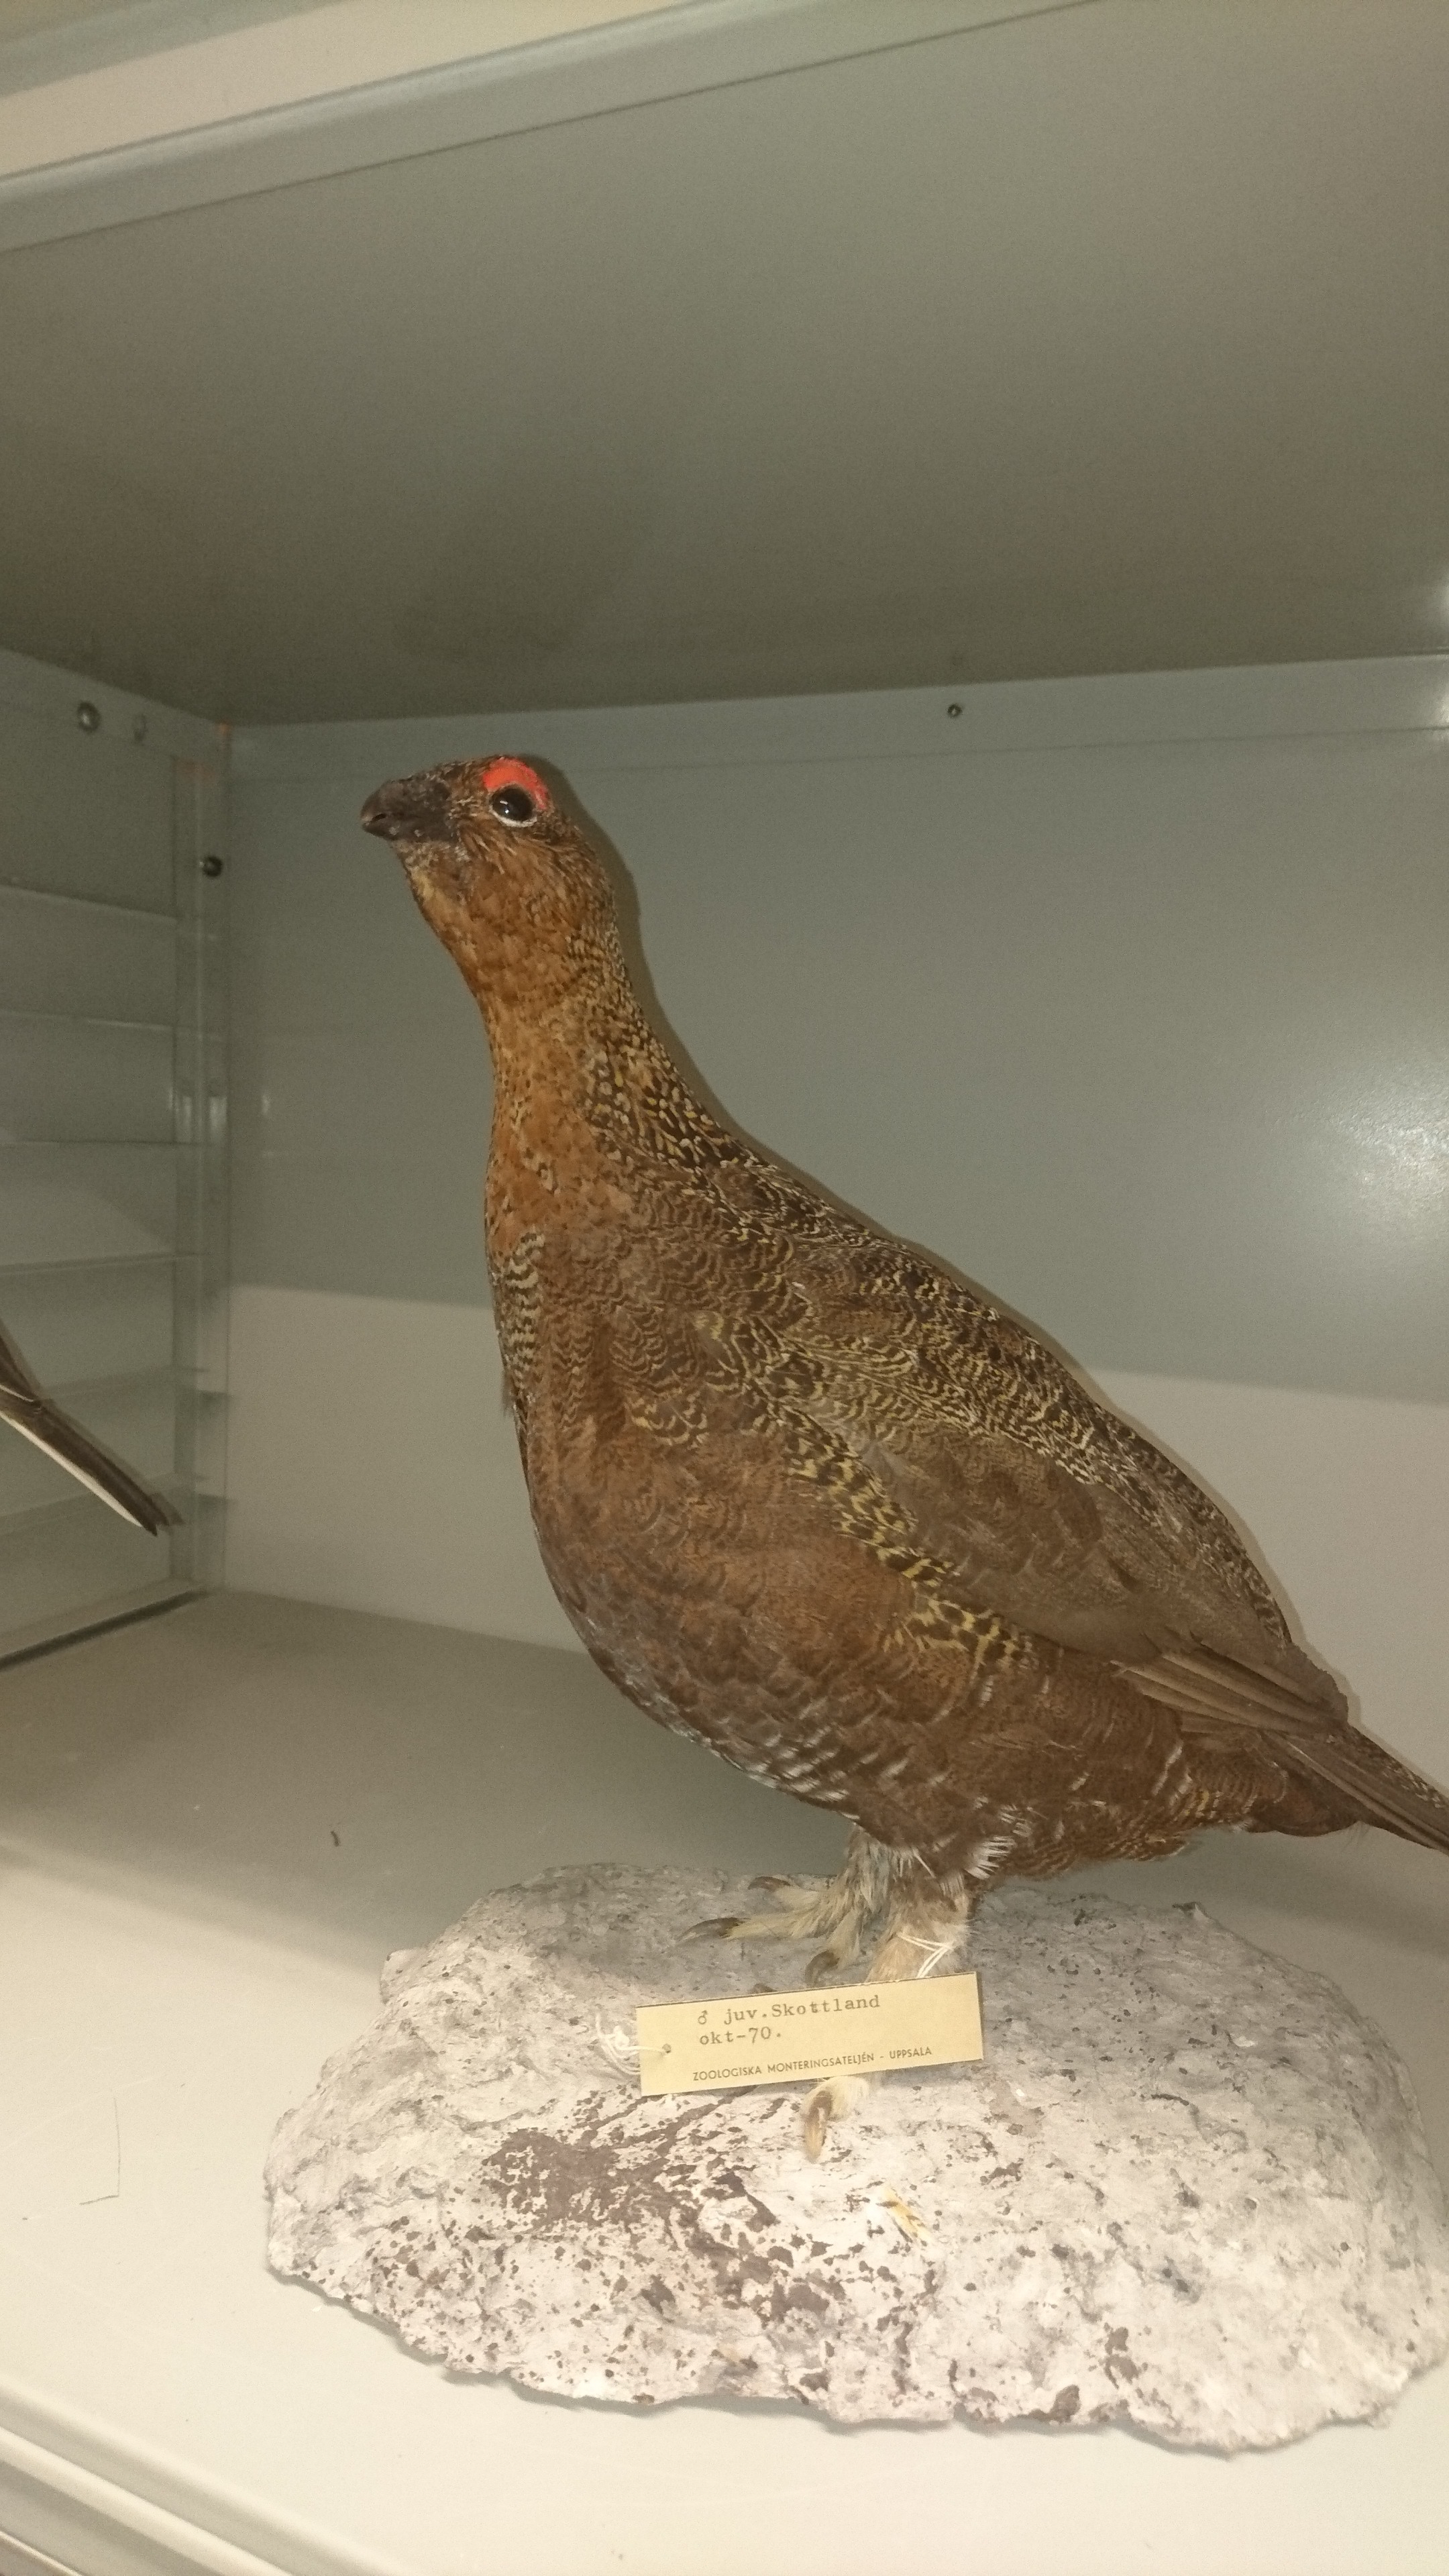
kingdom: Animalia
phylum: Chordata
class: Aves
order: Galliformes
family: Phasianidae
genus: Lagopus
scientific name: Lagopus lagopus
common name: Willow ptarmigan
